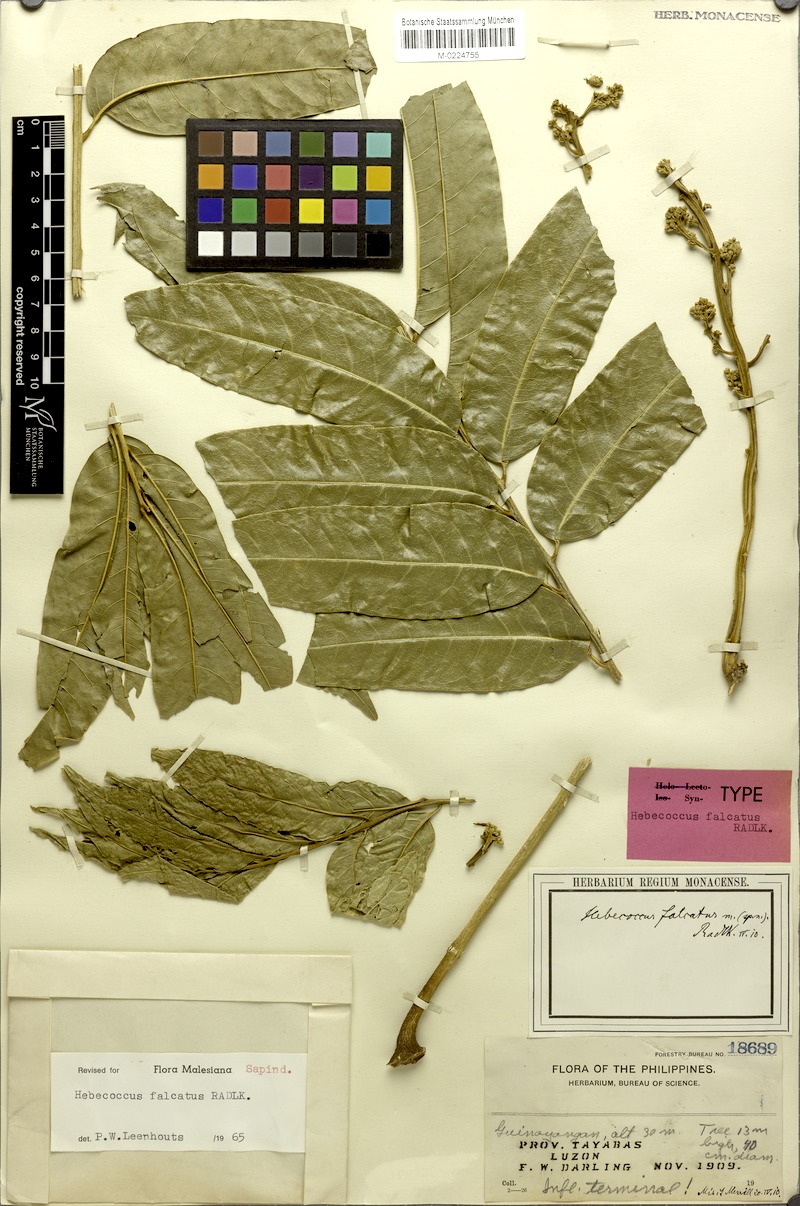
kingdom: Plantae
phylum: Tracheophyta
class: Magnoliopsida
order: Sapindales
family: Sapindaceae
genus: Lepisanthes
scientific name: Lepisanthes falcata
